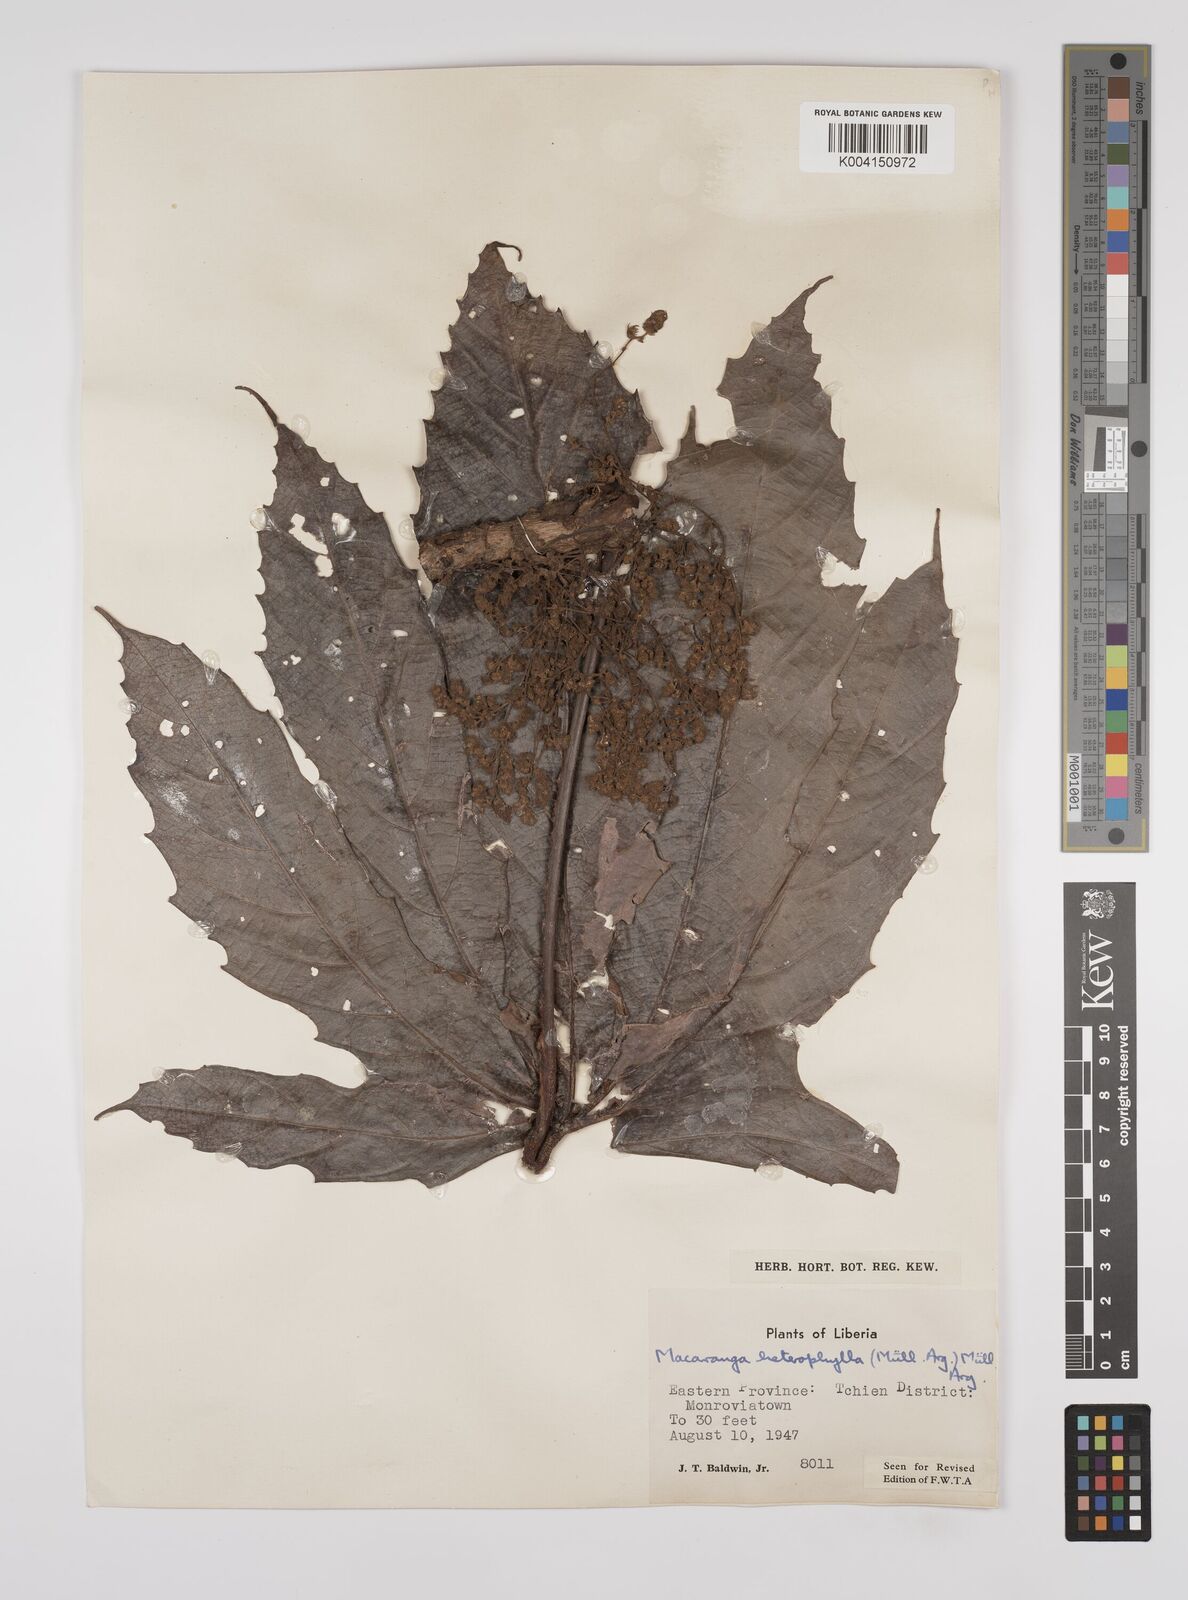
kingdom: Plantae
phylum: Tracheophyta
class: Magnoliopsida
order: Malpighiales
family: Euphorbiaceae
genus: Macaranga
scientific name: Macaranga heterophylla
